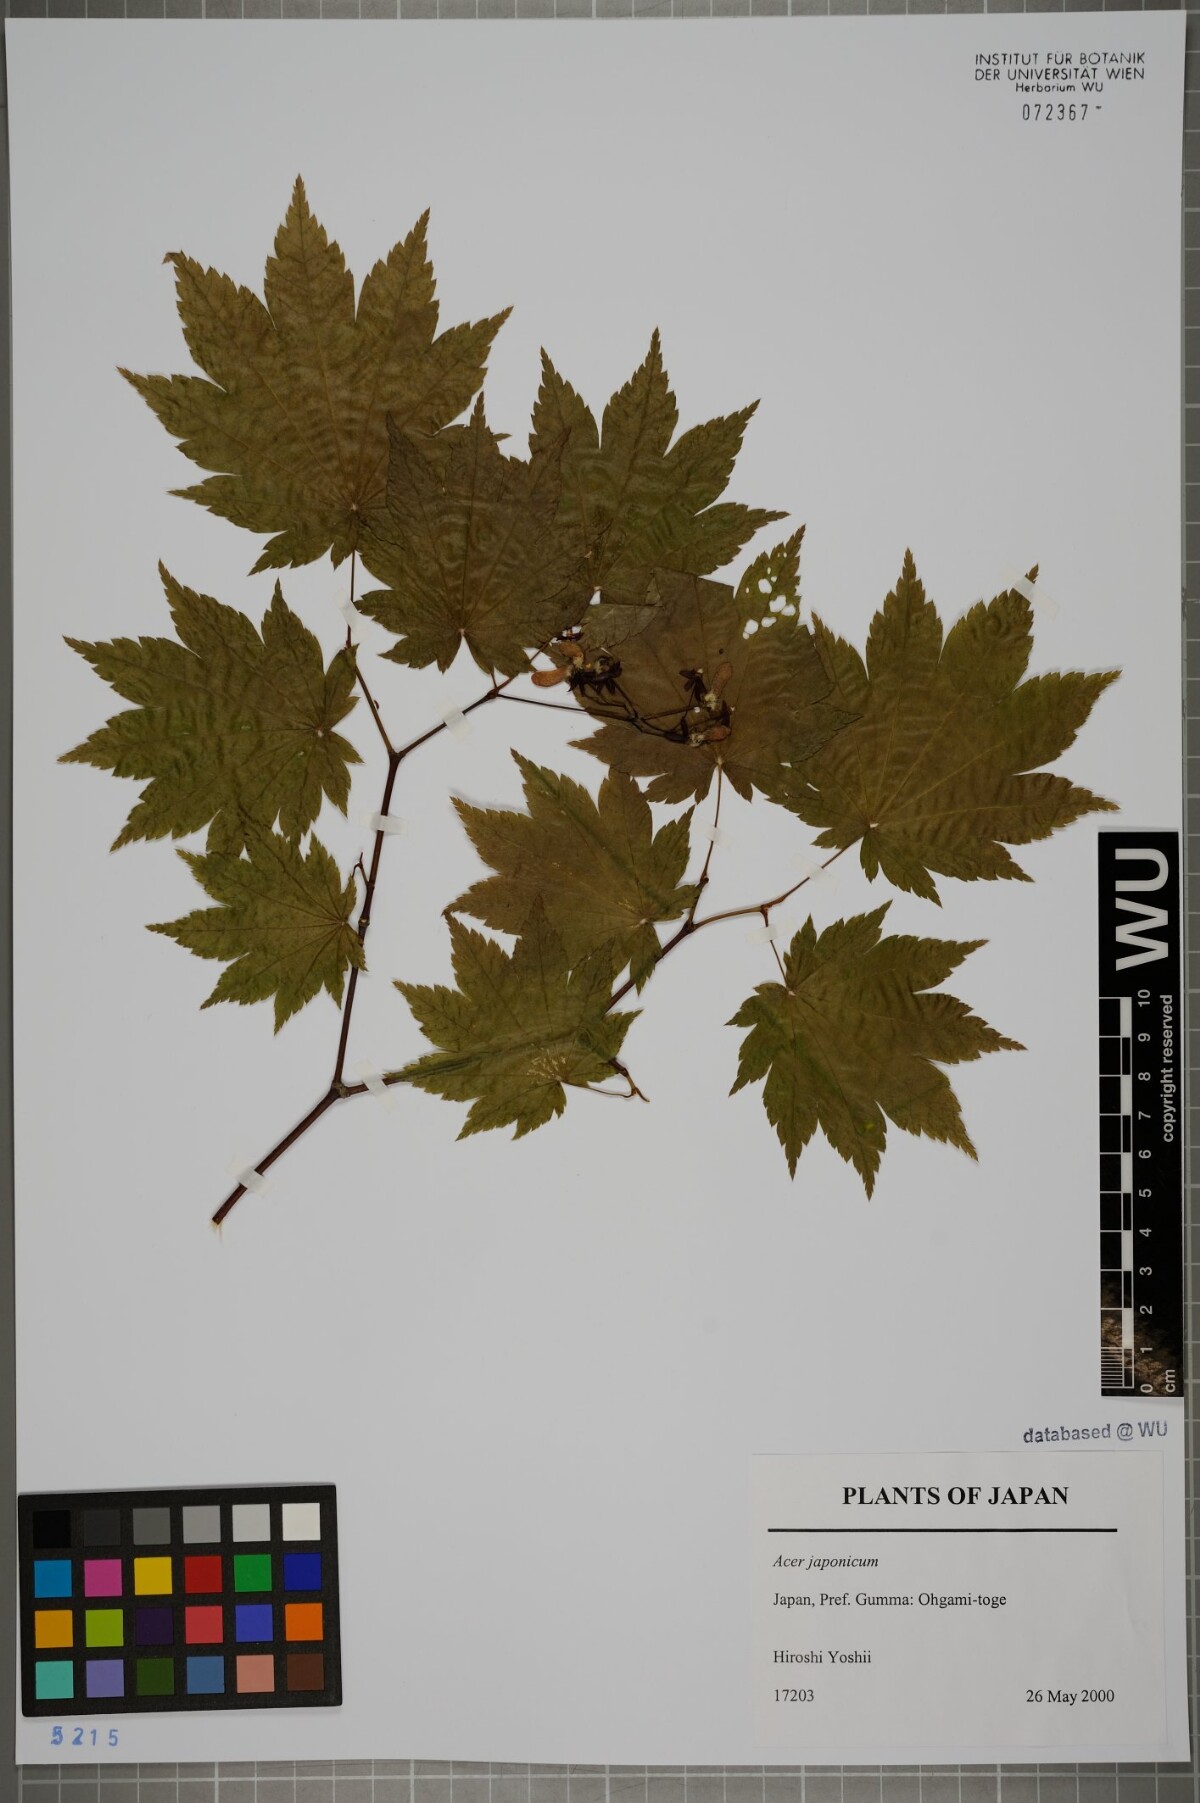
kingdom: Plantae
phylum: Tracheophyta
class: Magnoliopsida
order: Sapindales
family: Sapindaceae
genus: Acer
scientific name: Acer japonicum
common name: Amur maple
